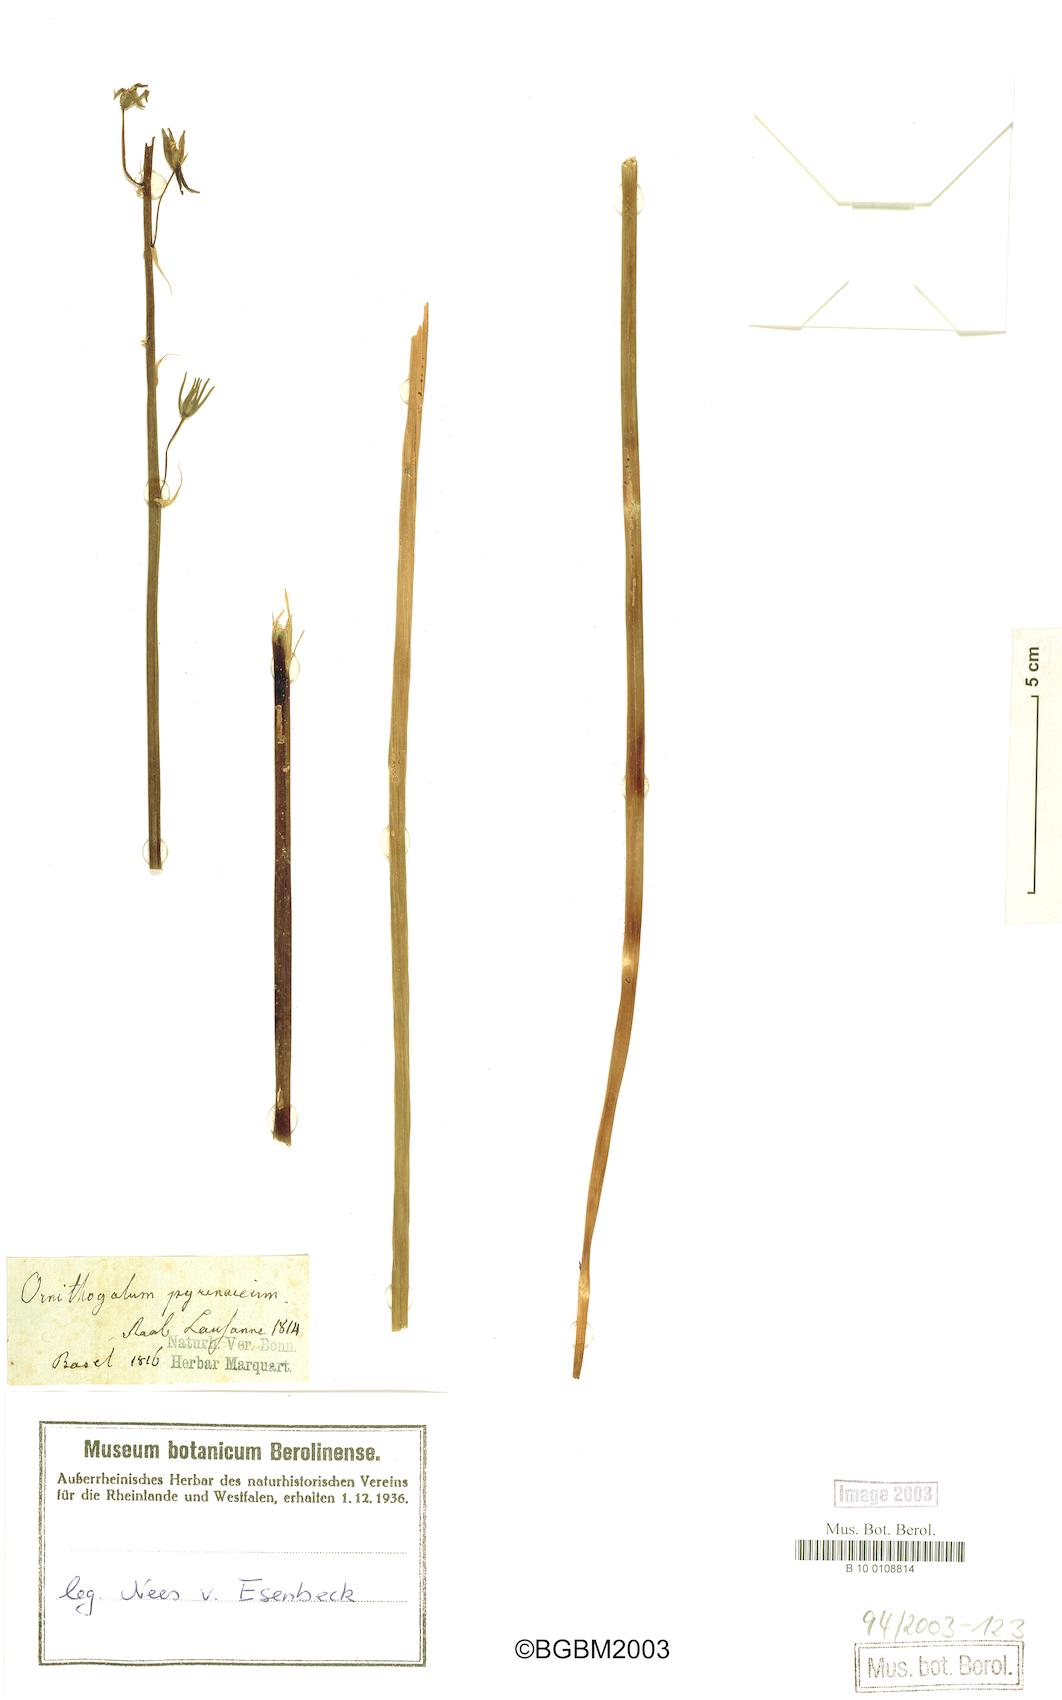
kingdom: Plantae
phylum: Tracheophyta
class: Liliopsida
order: Asparagales
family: Asparagaceae
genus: Ornithogalum
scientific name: Ornithogalum pyrenaicum
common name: Spiked star-of-bethlehem
